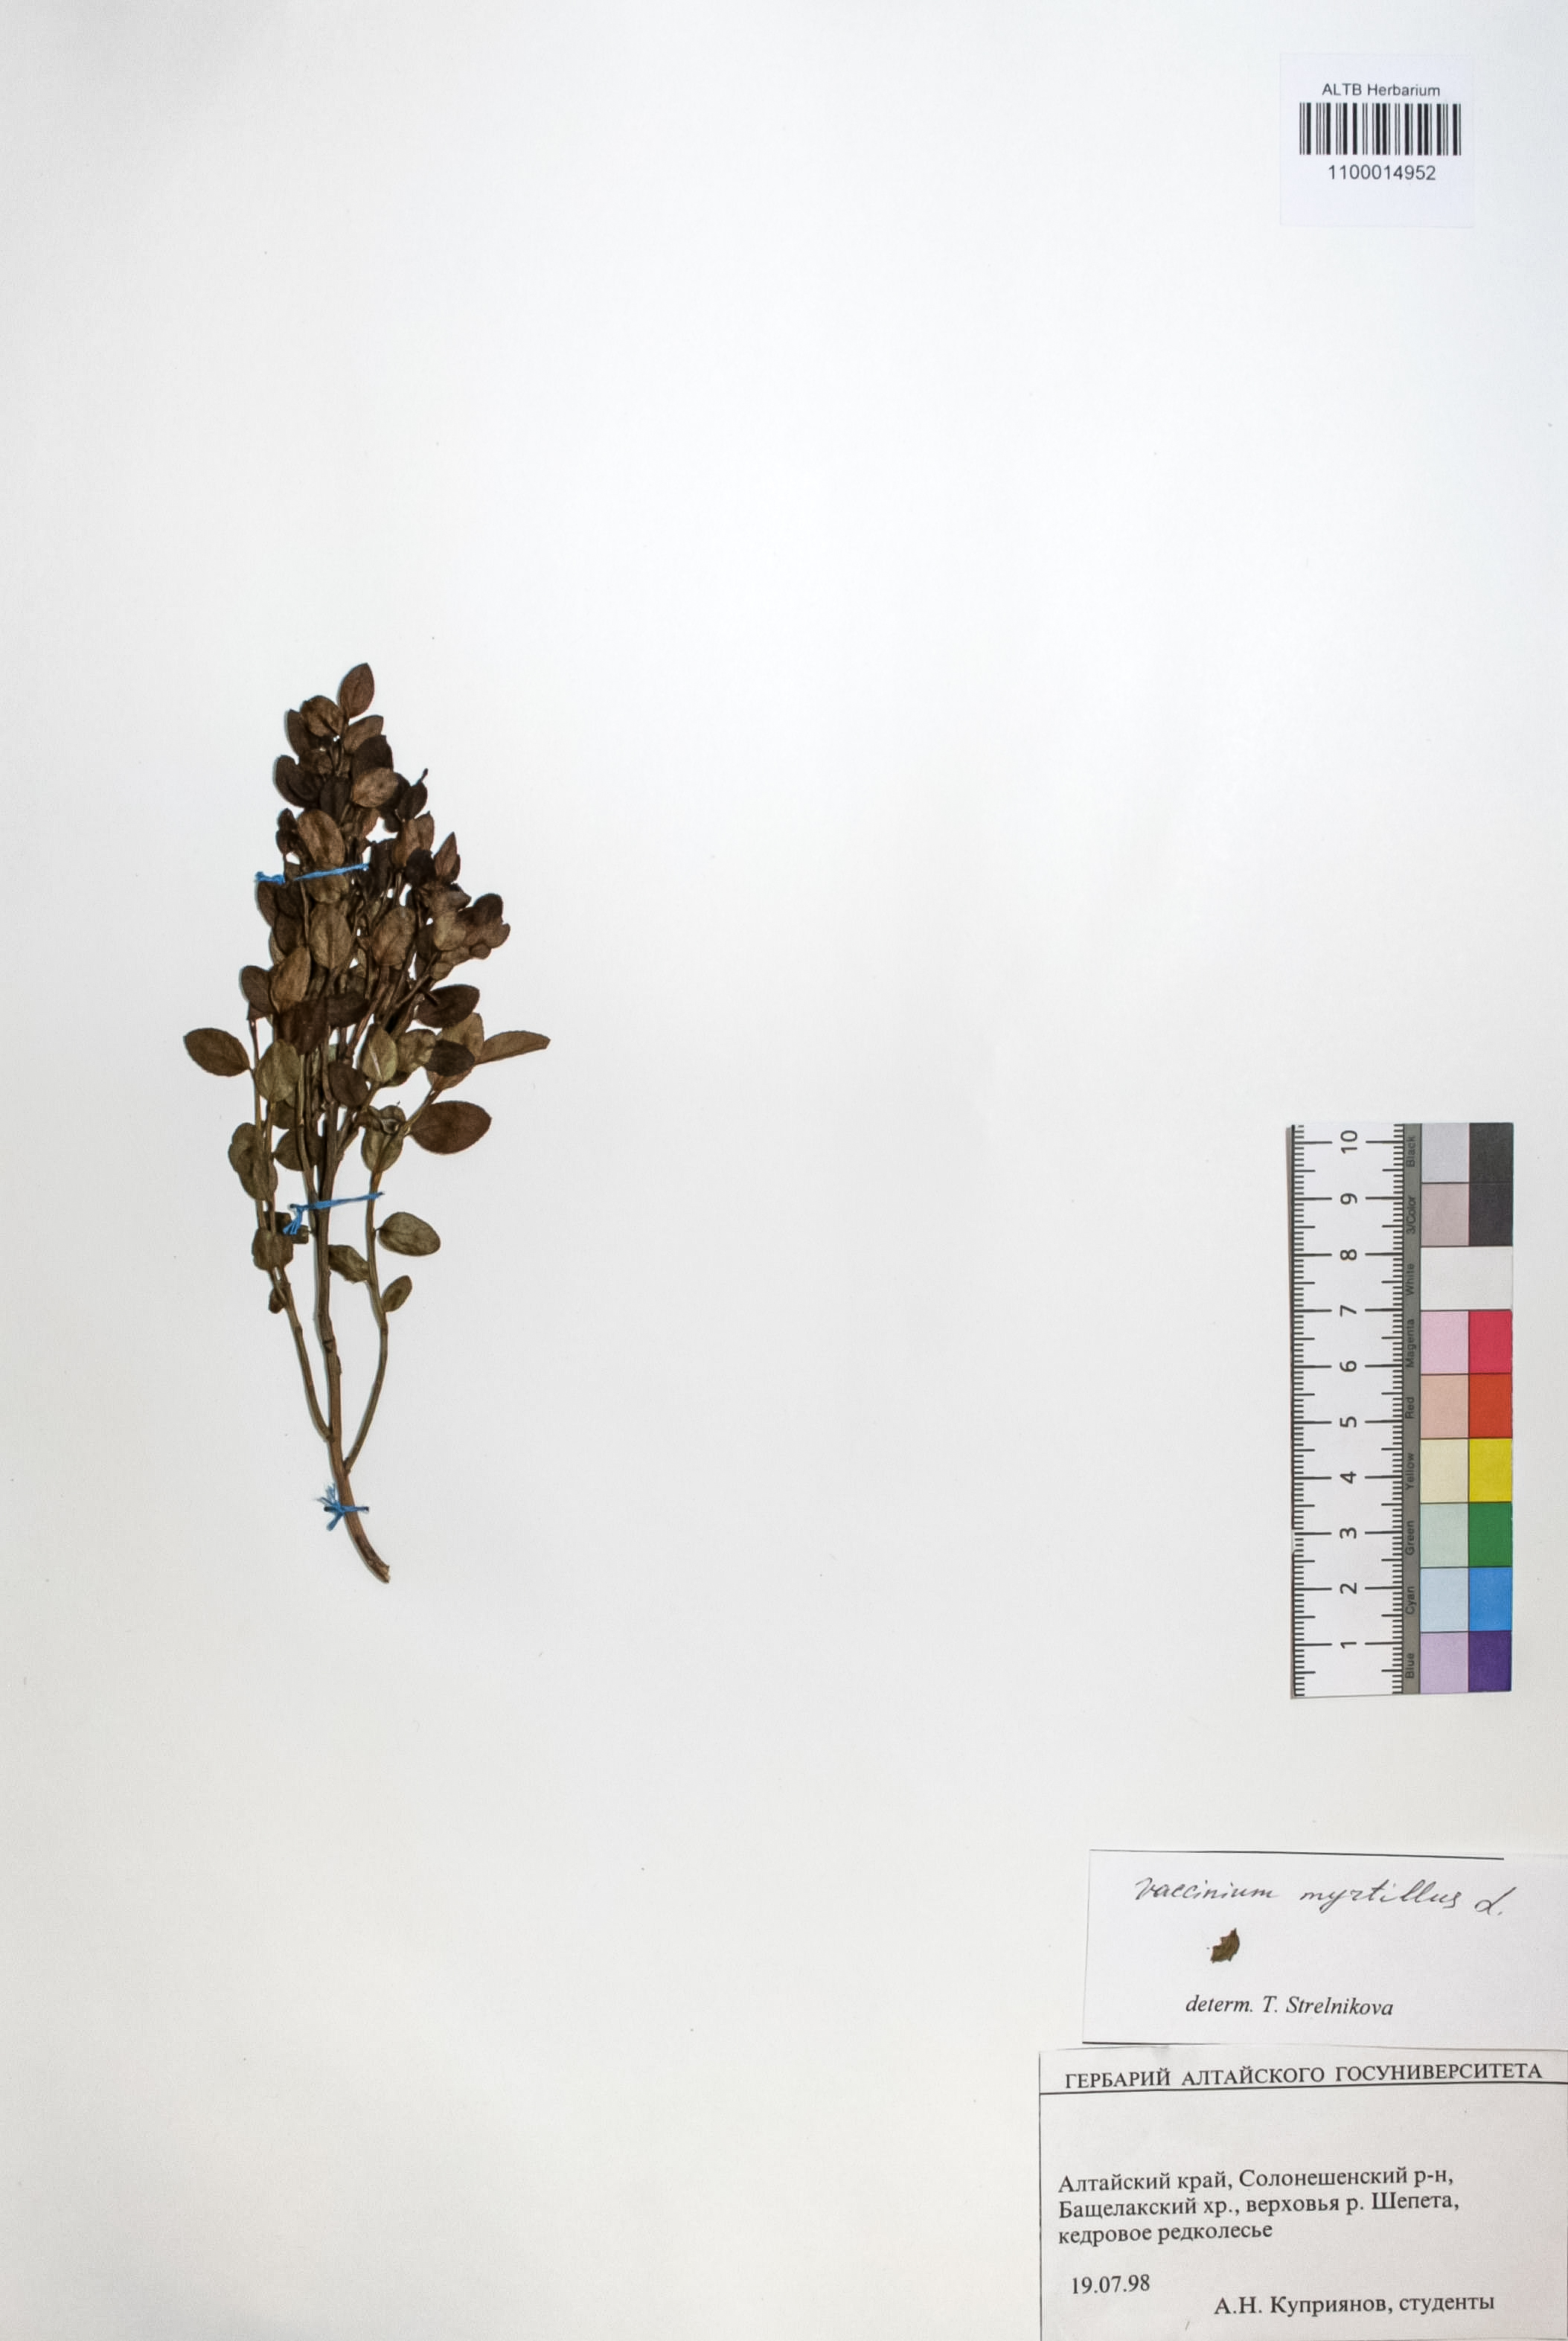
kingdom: Plantae
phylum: Tracheophyta
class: Magnoliopsida
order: Ericales
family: Ericaceae
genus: Vaccinium
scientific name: Vaccinium myrtillus
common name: Bilberry
